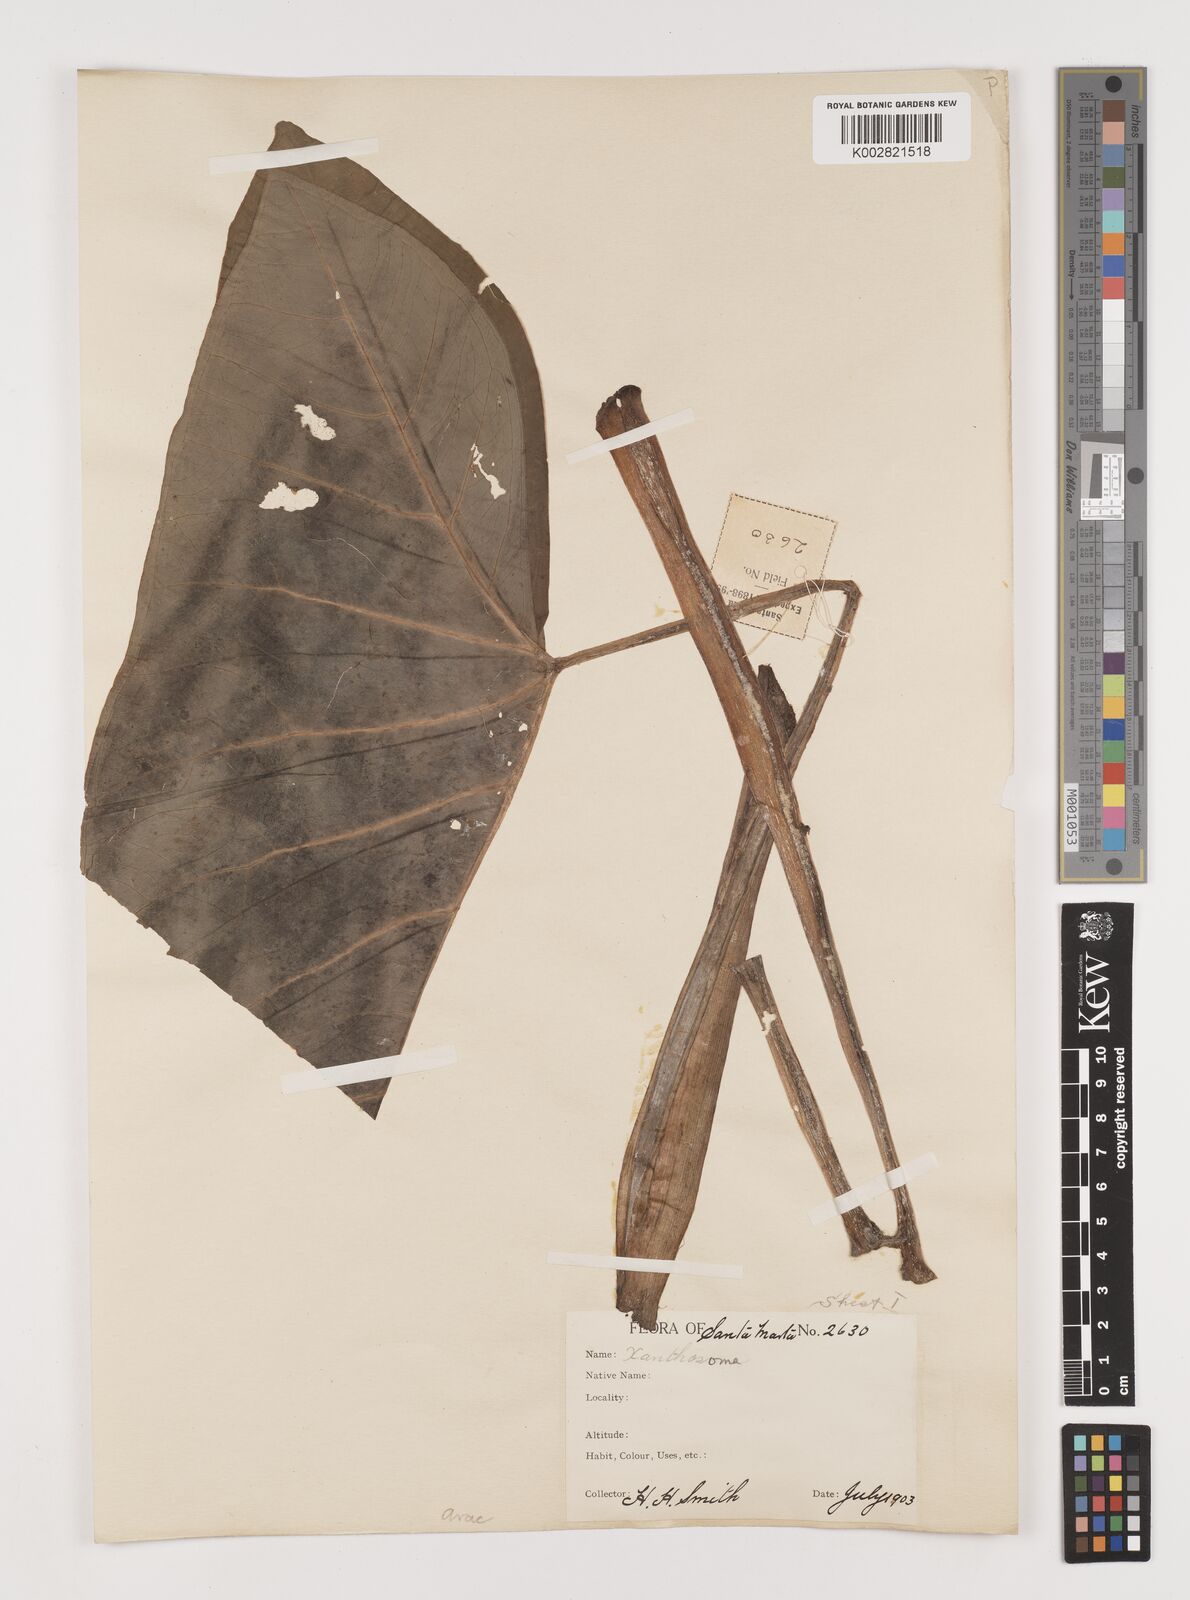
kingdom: Plantae
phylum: Tracheophyta
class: Liliopsida
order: Alismatales
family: Araceae
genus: Xanthosoma
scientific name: Xanthosoma
